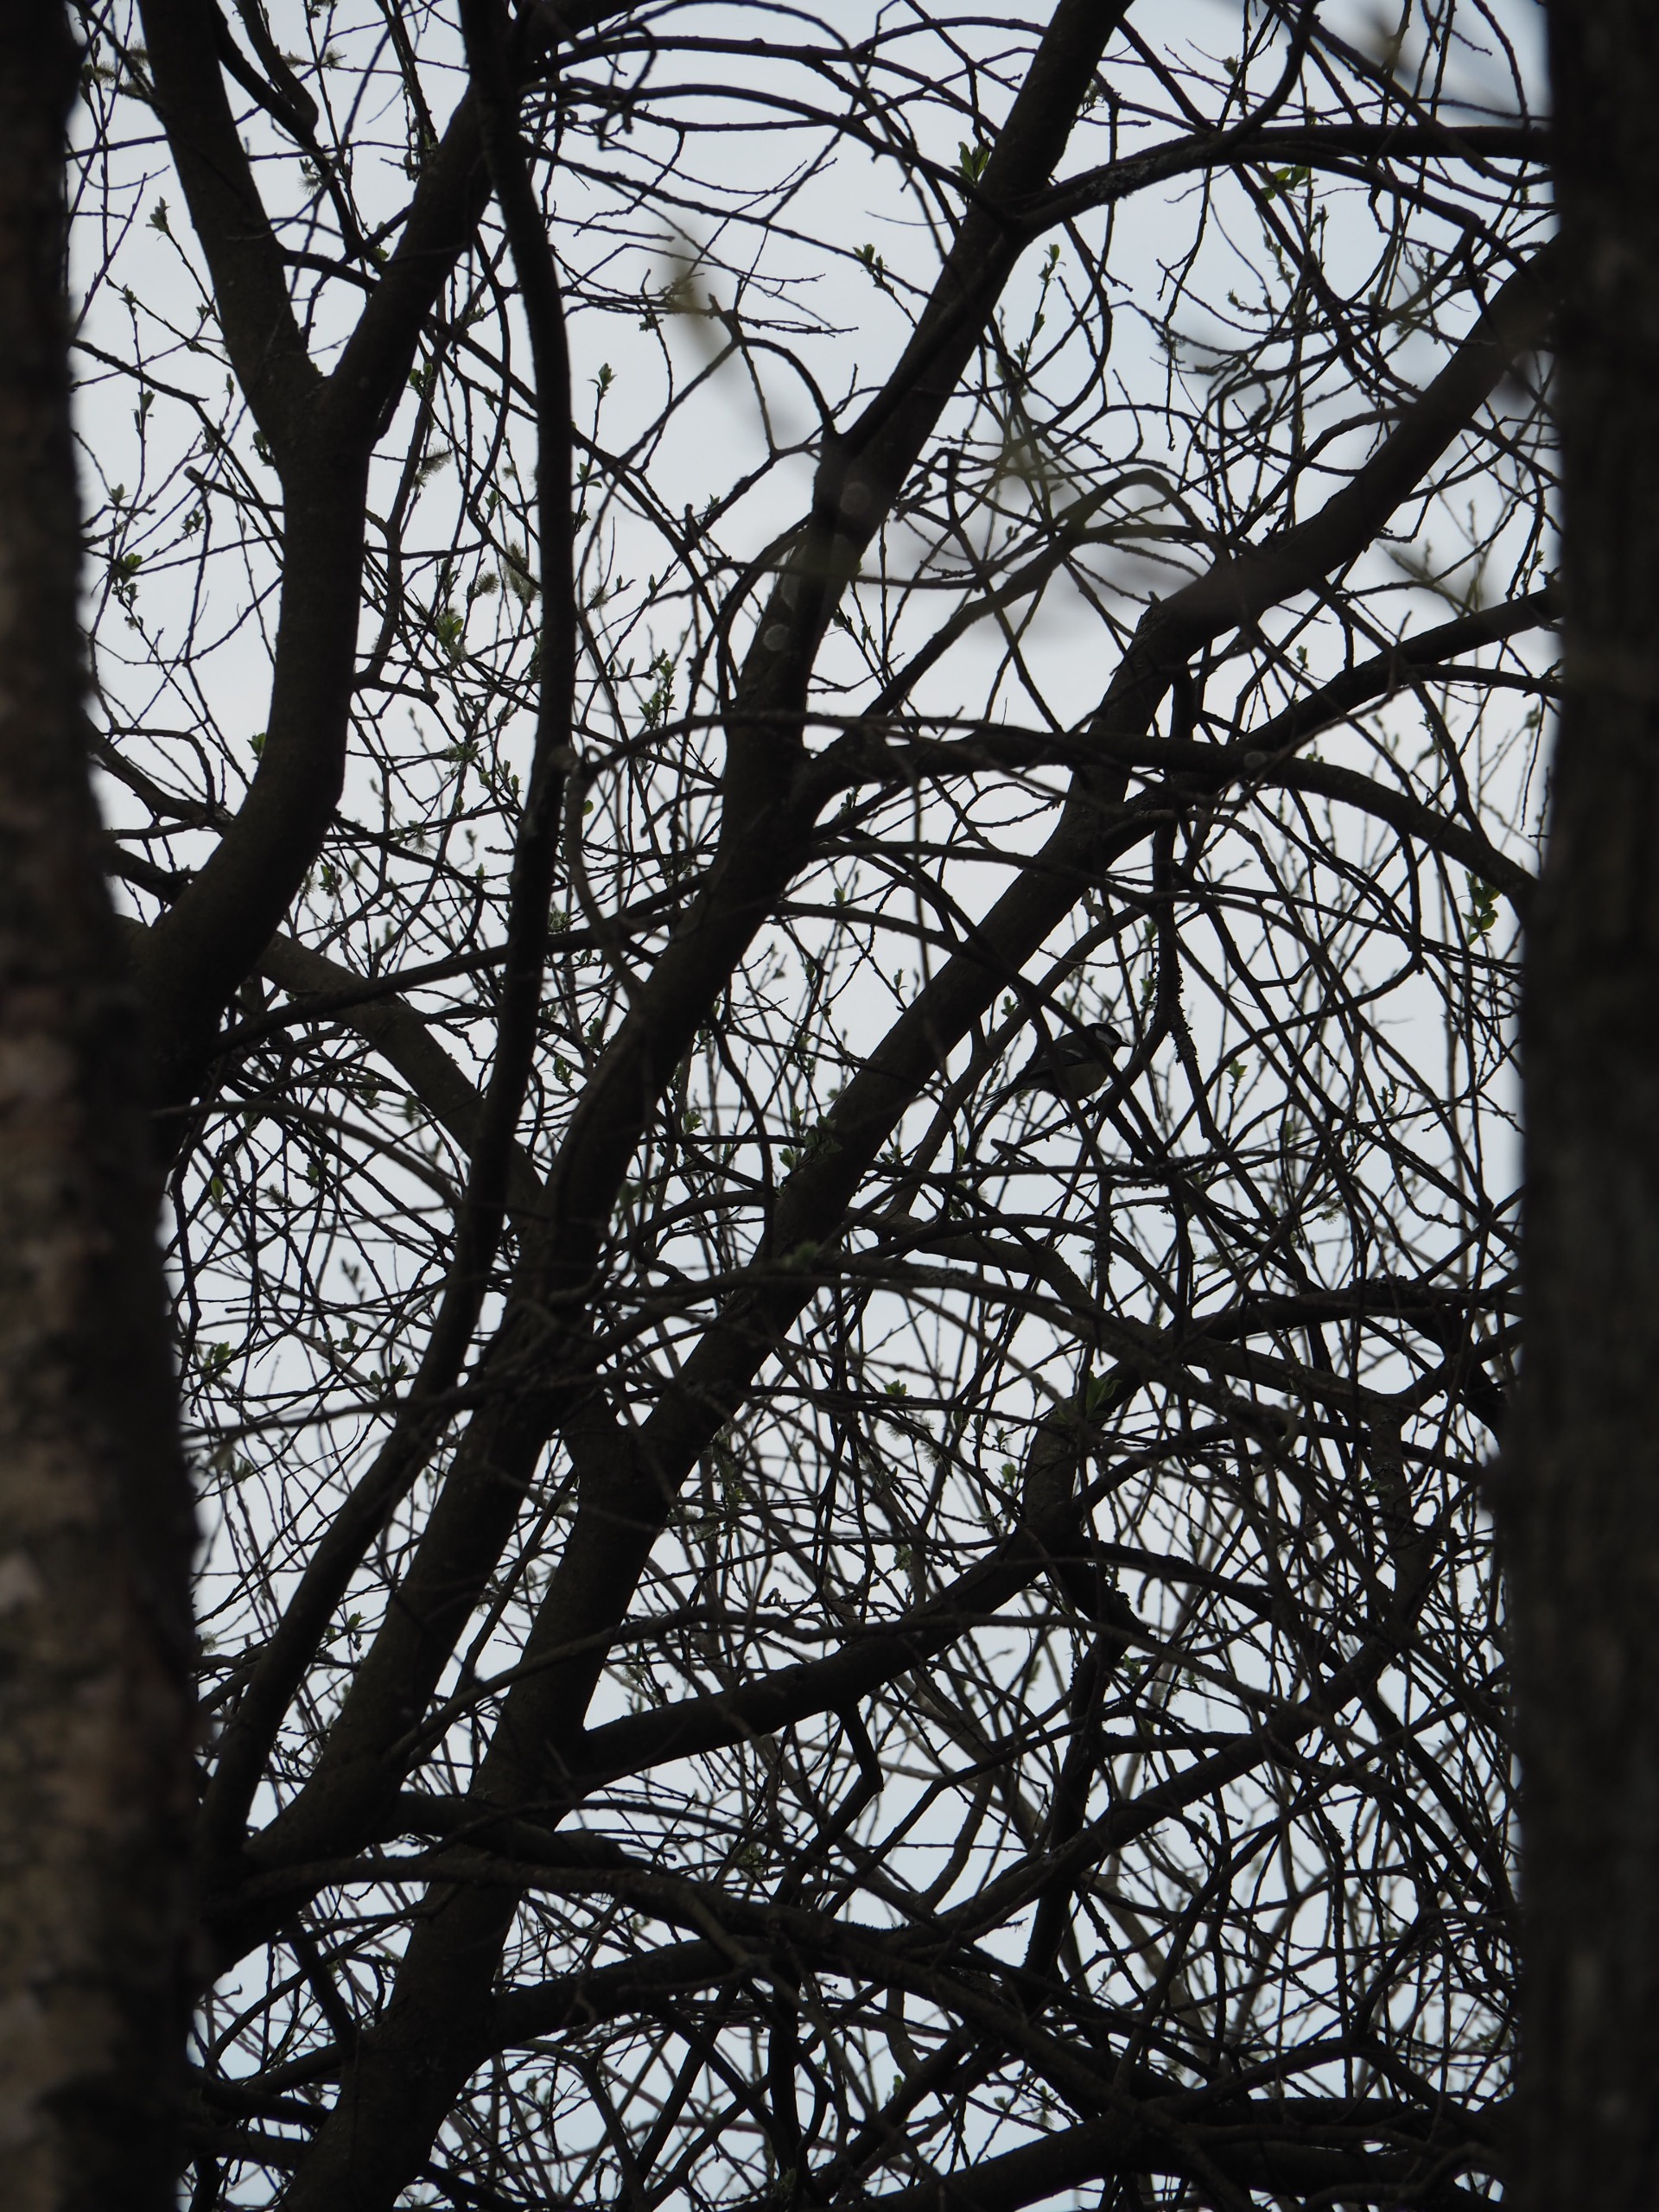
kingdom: Animalia
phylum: Chordata
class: Aves
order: Passeriformes
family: Paridae
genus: Parus
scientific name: Parus major
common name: Musvit
